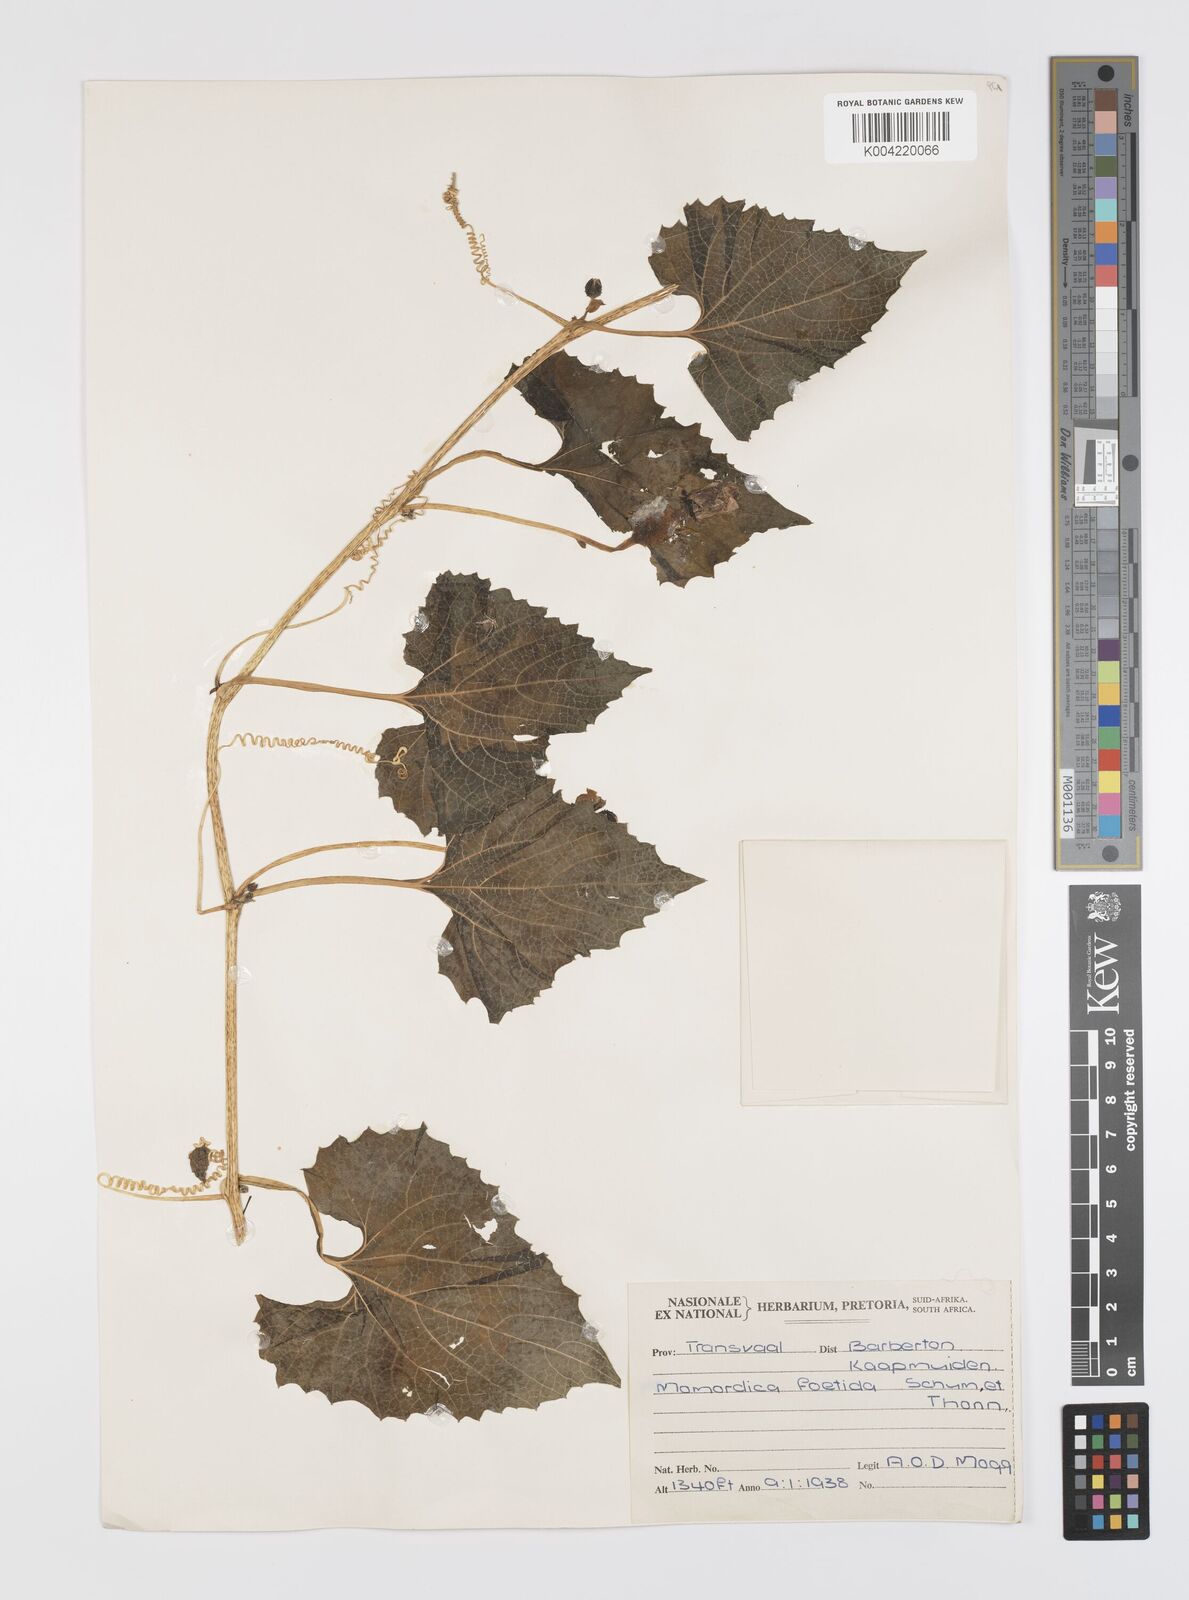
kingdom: Plantae
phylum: Tracheophyta
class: Magnoliopsida
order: Cucurbitales
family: Cucurbitaceae
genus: Momordica
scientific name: Momordica foetida
